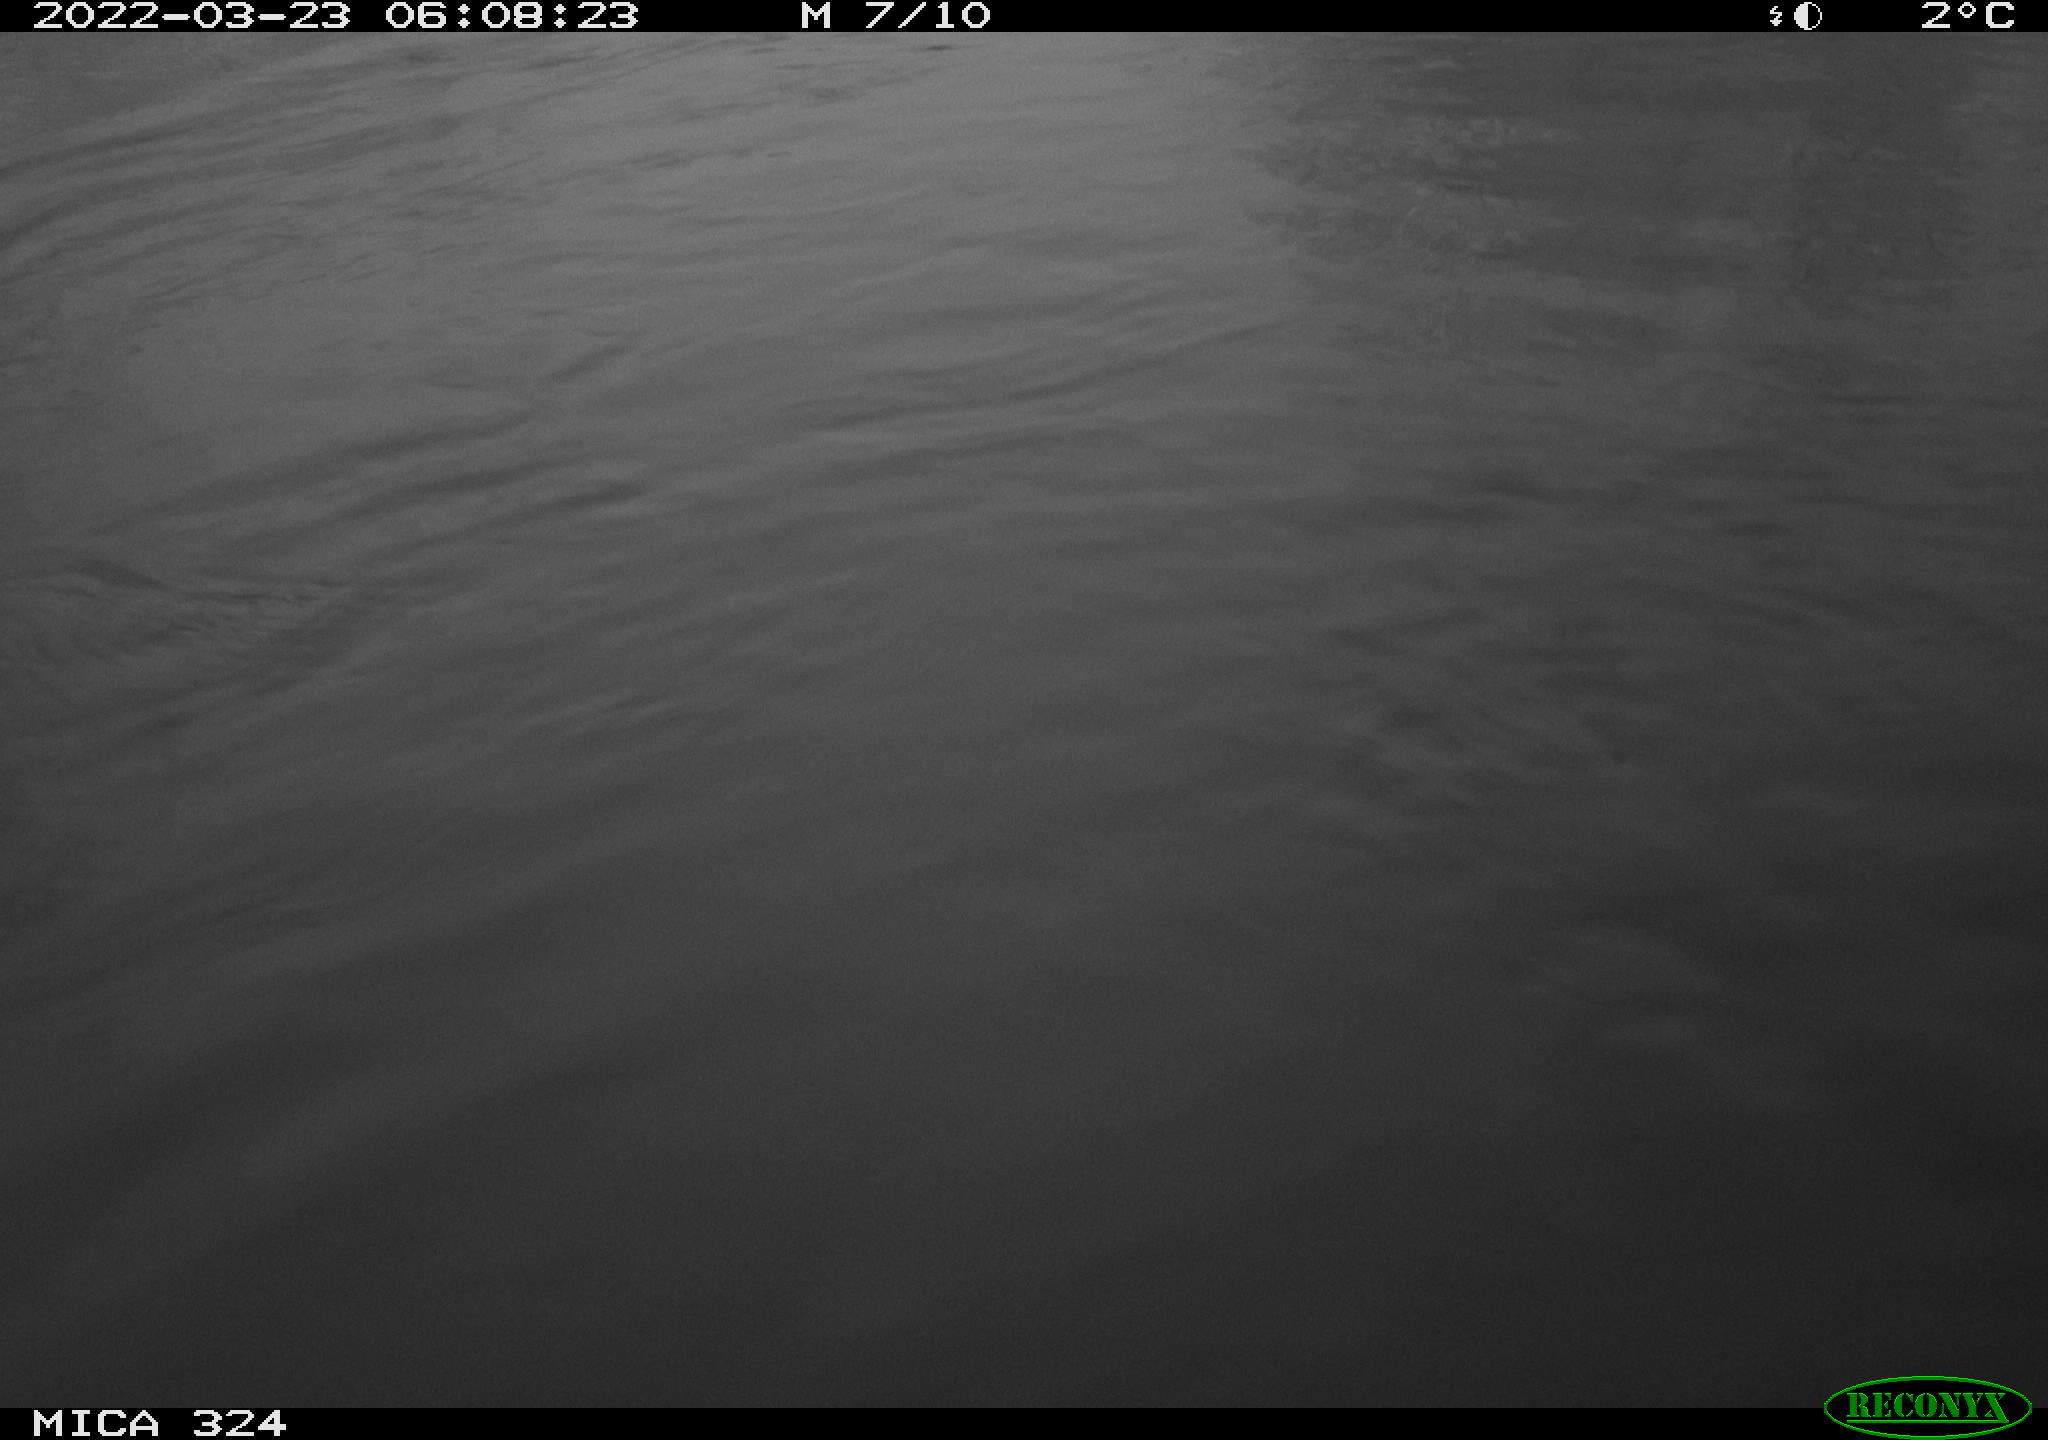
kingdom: Animalia
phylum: Chordata
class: Mammalia
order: Rodentia
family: Cricetidae
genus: Ondatra
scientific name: Ondatra zibethicus
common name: Muskrat
